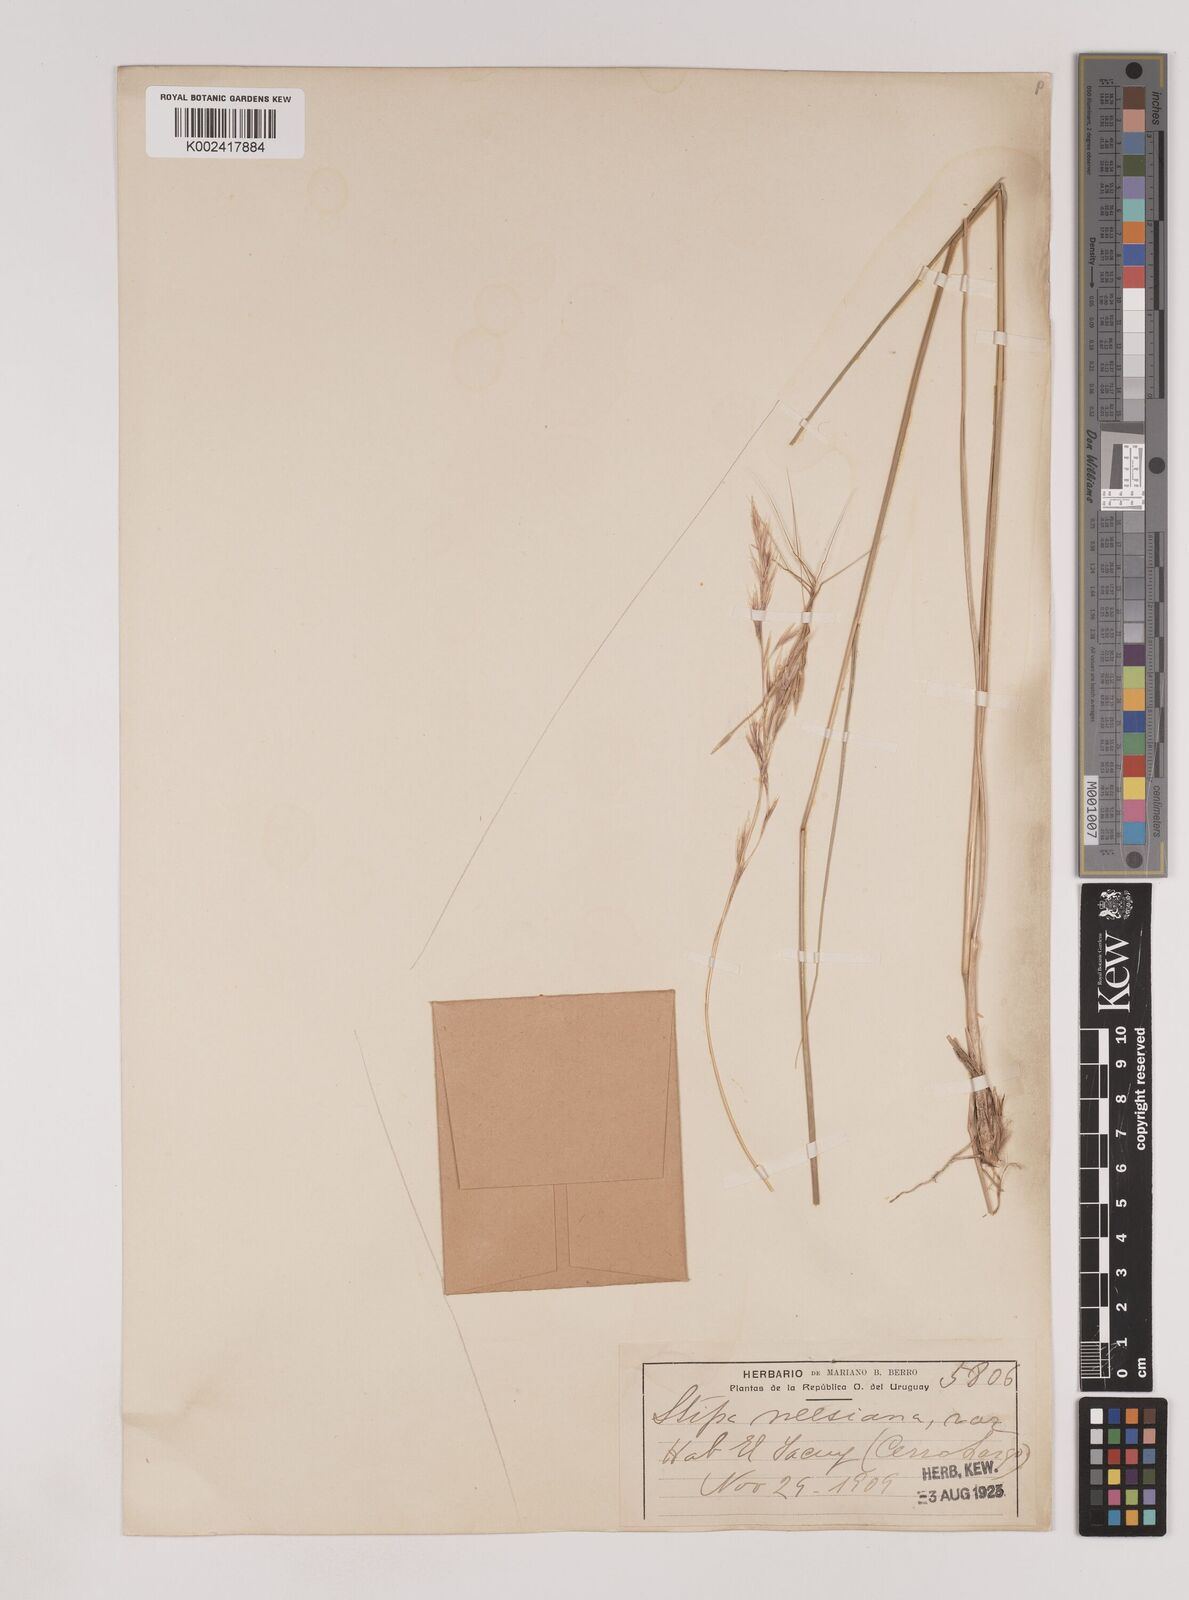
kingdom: Plantae
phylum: Tracheophyta
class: Liliopsida
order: Poales
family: Poaceae
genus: Nassella
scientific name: Nassella neesiana
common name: American needle-grass
